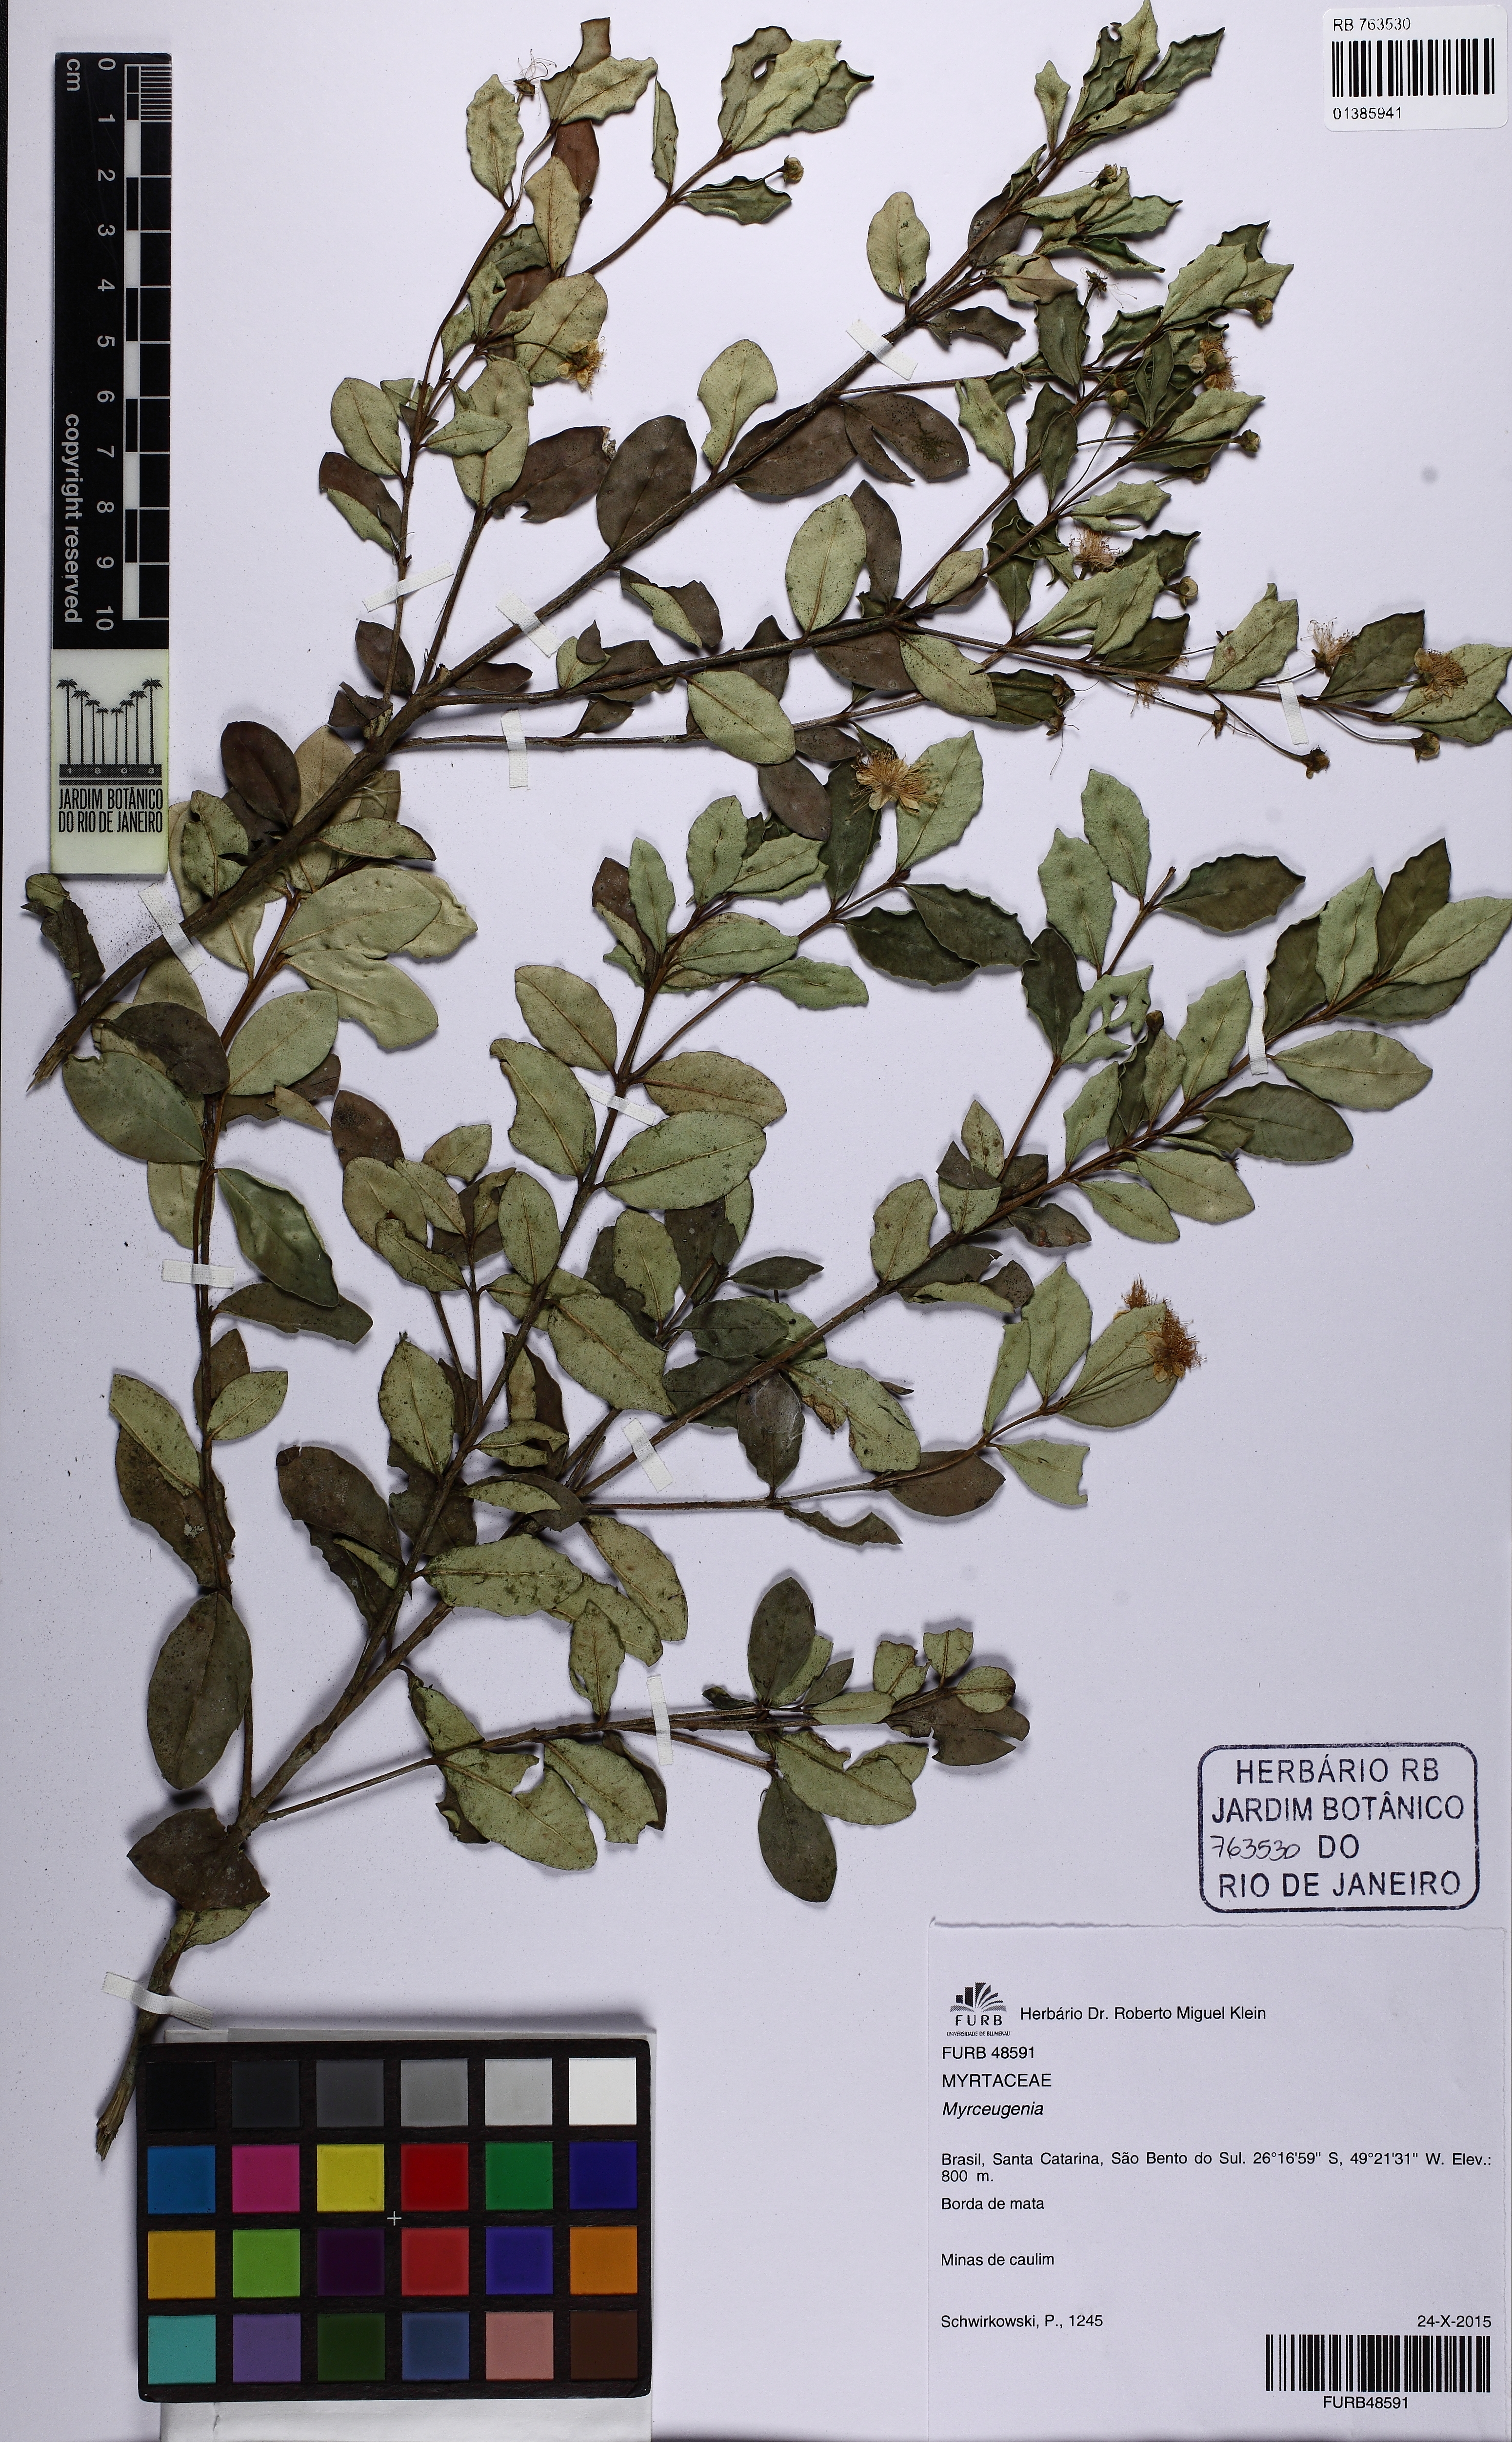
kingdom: Plantae
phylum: Tracheophyta
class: Magnoliopsida
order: Myrtales
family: Myrtaceae
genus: Myrceugenia
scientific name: Myrceugenia glaucescens
